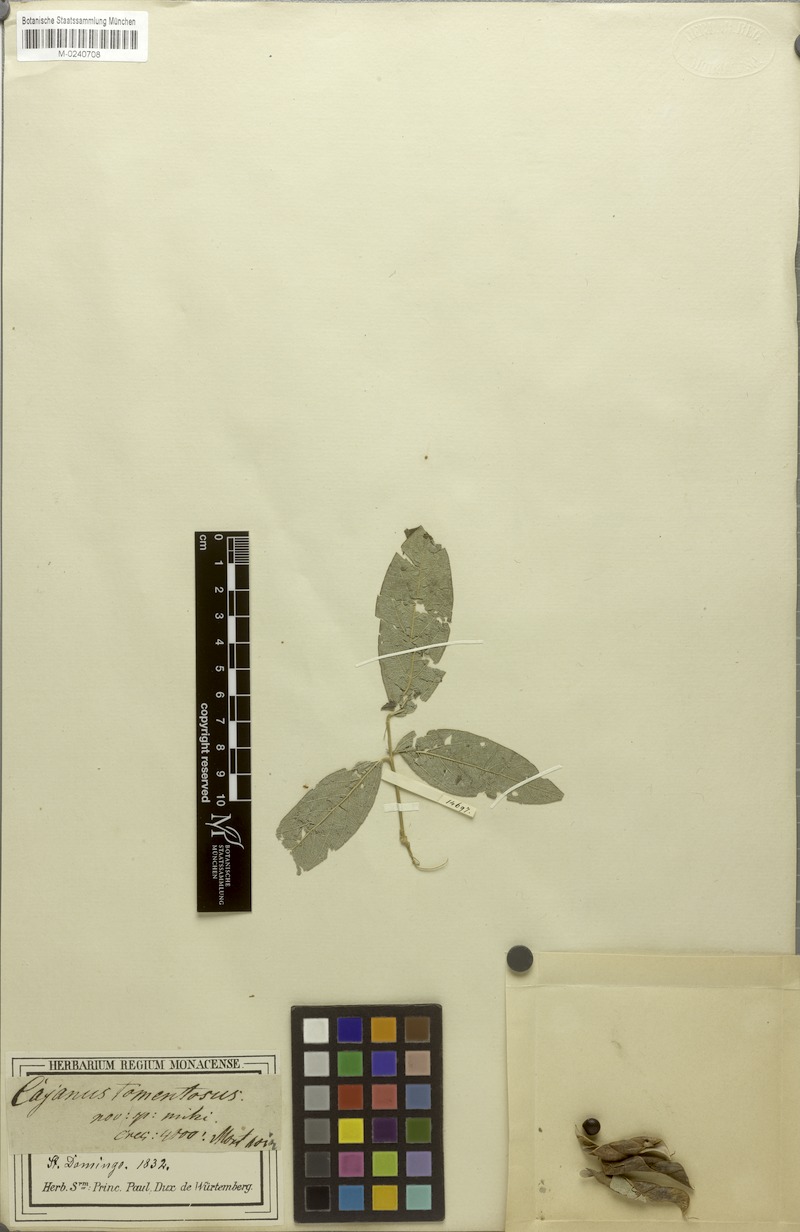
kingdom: Plantae
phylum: Tracheophyta
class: Magnoliopsida
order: Fabales
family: Fabaceae
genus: Cajanus
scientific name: Cajanus cajan
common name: Pigeonpea
